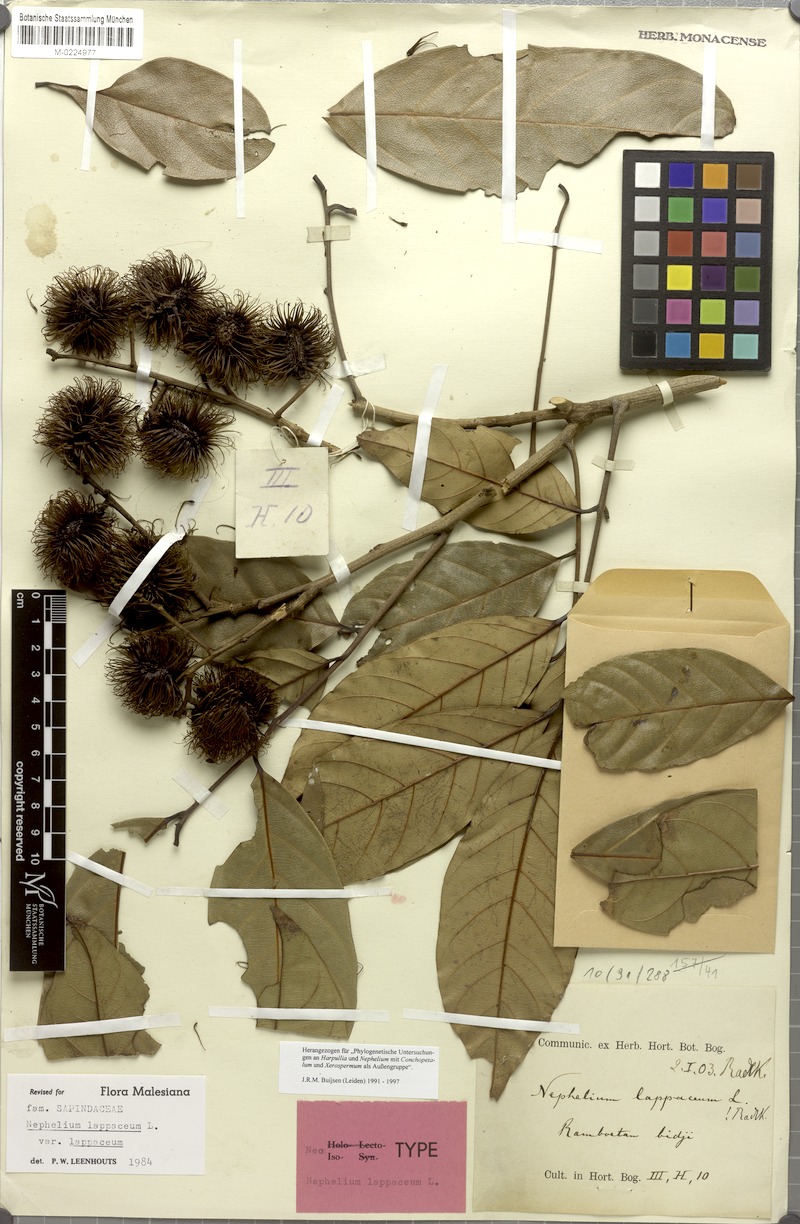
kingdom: Plantae
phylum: Tracheophyta
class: Magnoliopsida
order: Sapindales
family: Sapindaceae
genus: Nephelium
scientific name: Nephelium lappaceum
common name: Rambutan
